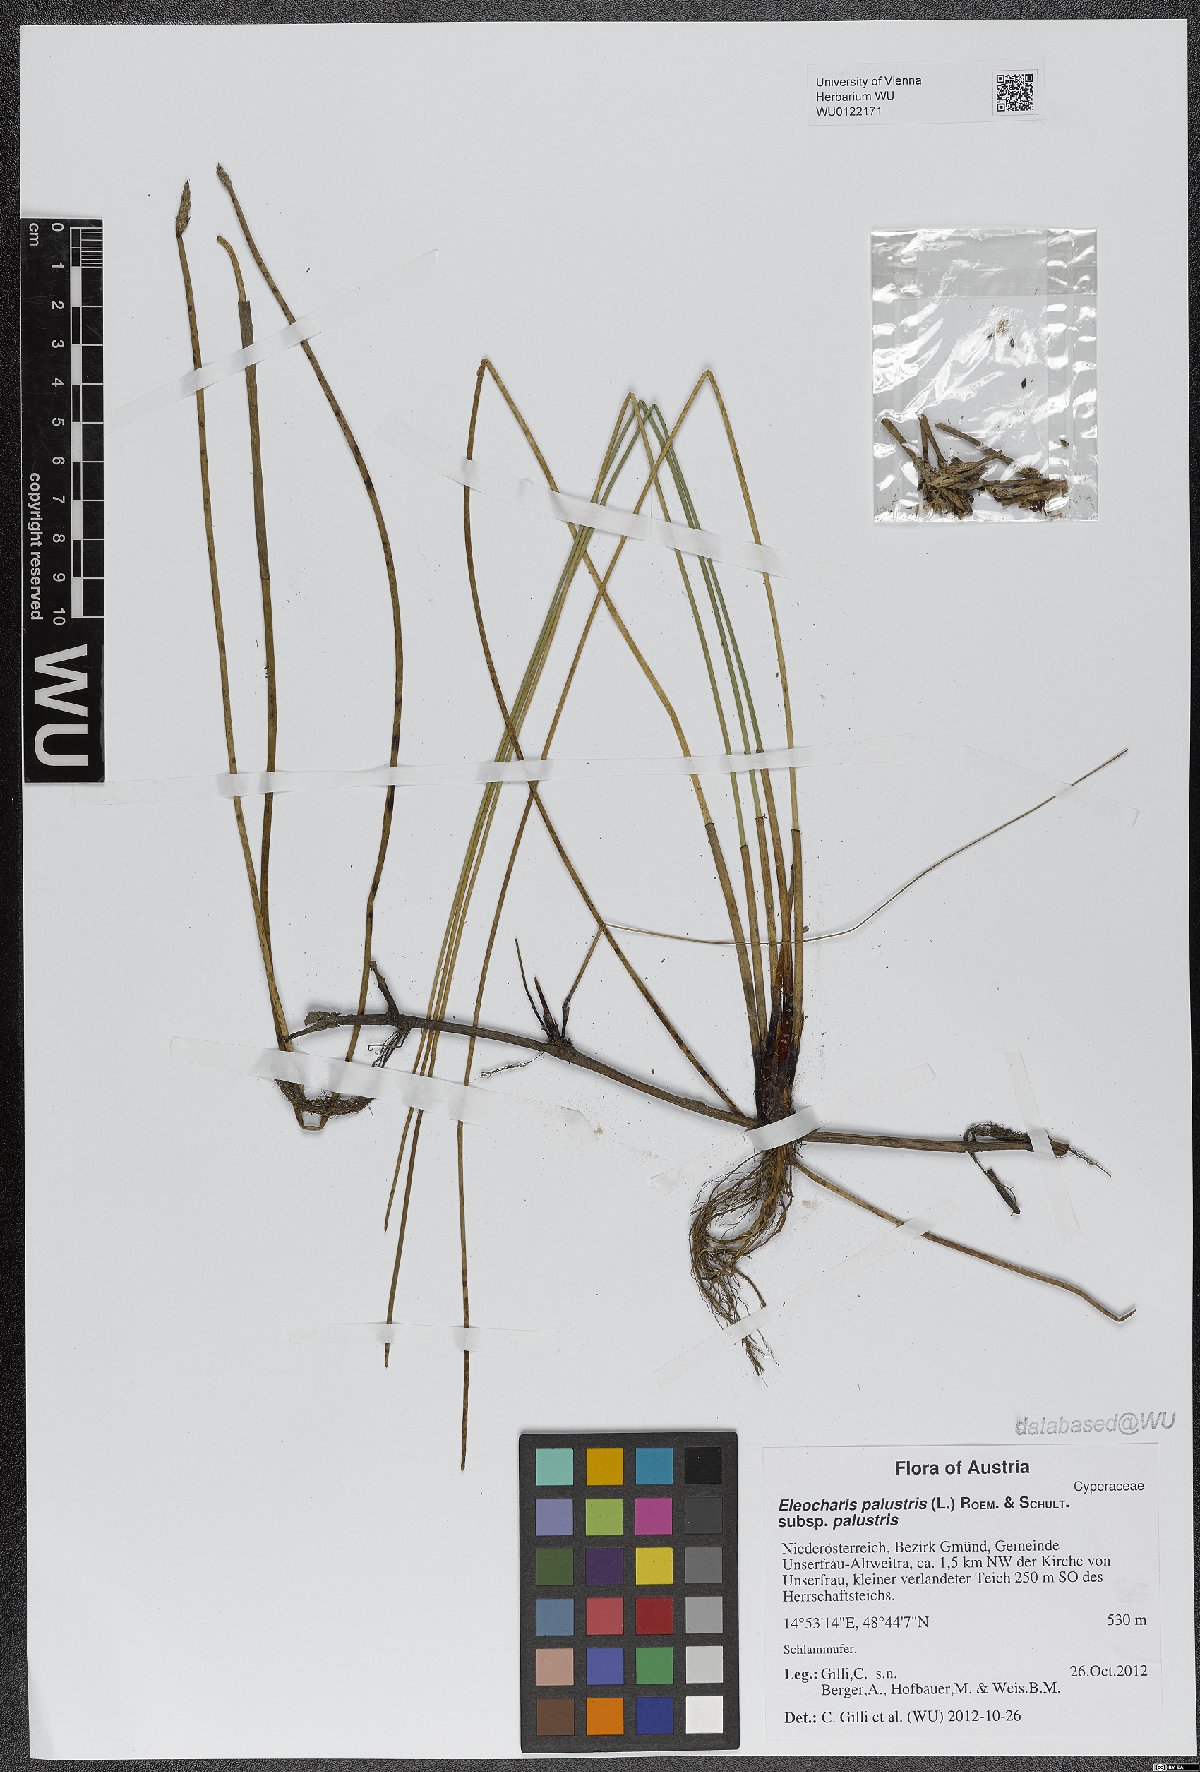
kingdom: Plantae
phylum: Tracheophyta
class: Liliopsida
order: Poales
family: Cyperaceae
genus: Eleocharis
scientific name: Eleocharis palustris
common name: Common spike-rush
